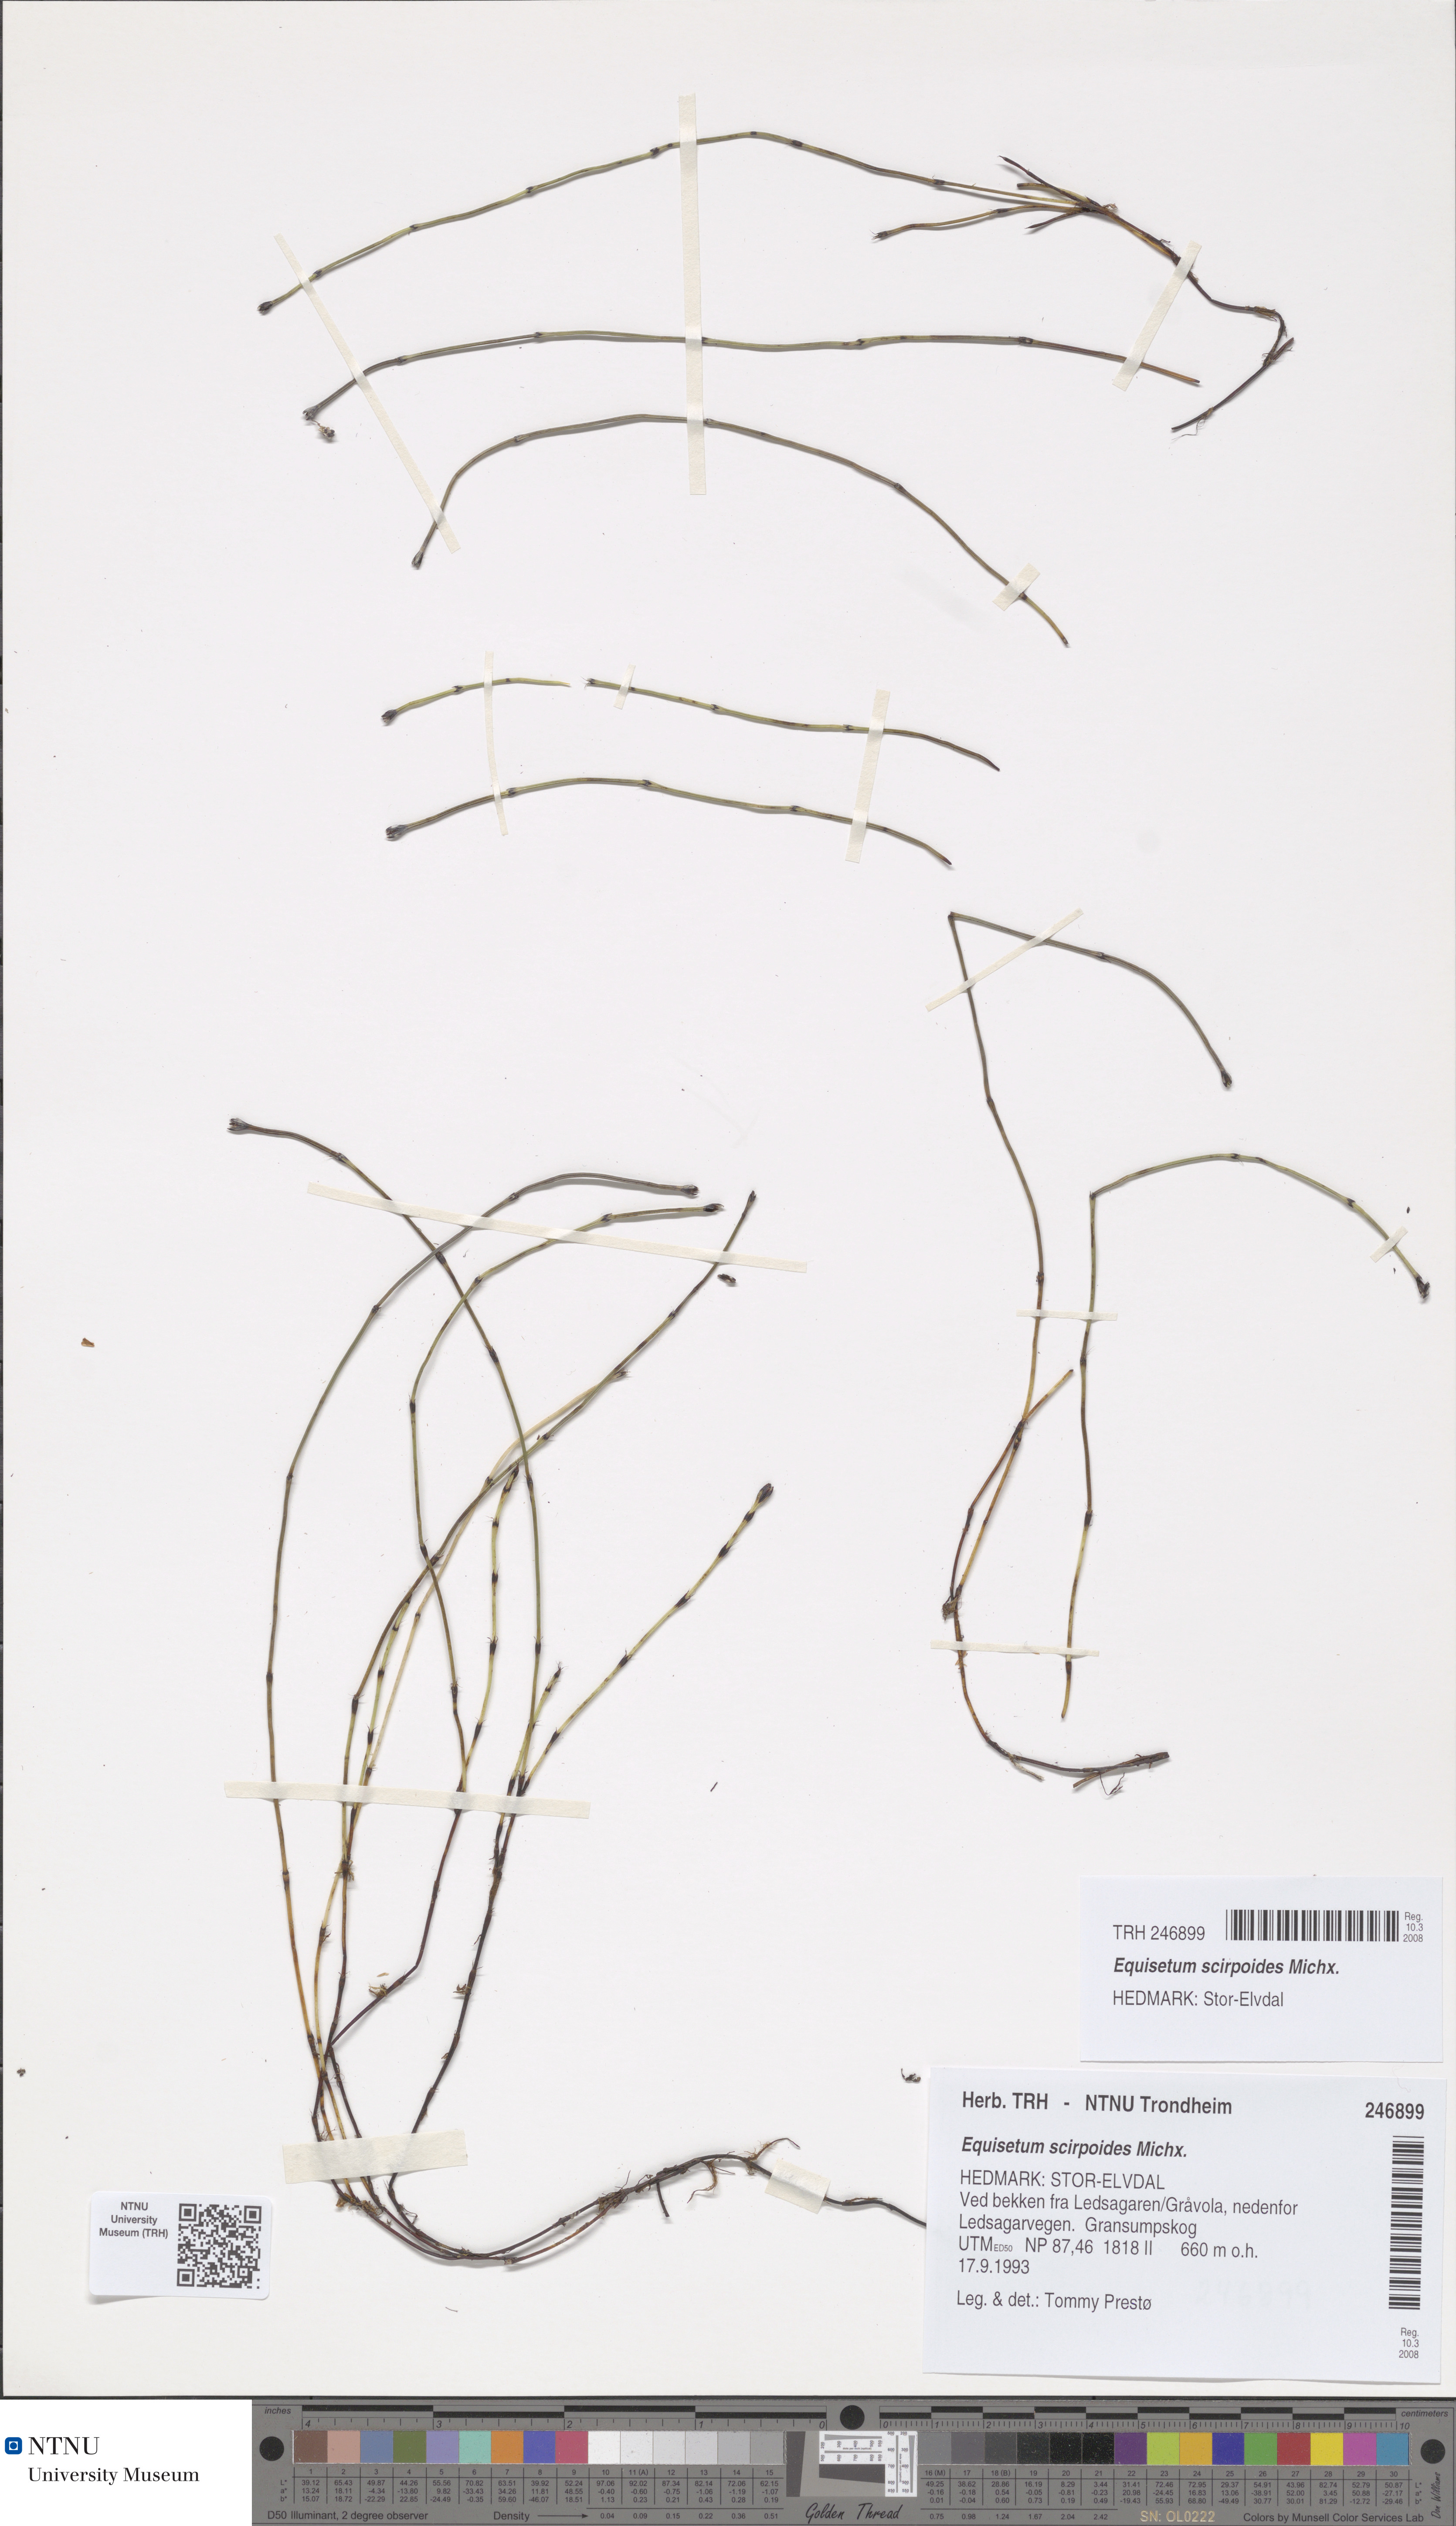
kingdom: Plantae
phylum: Tracheophyta
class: Polypodiopsida
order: Equisetales
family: Equisetaceae
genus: Equisetum
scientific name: Equisetum scirpoides
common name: Delicate horsetail
